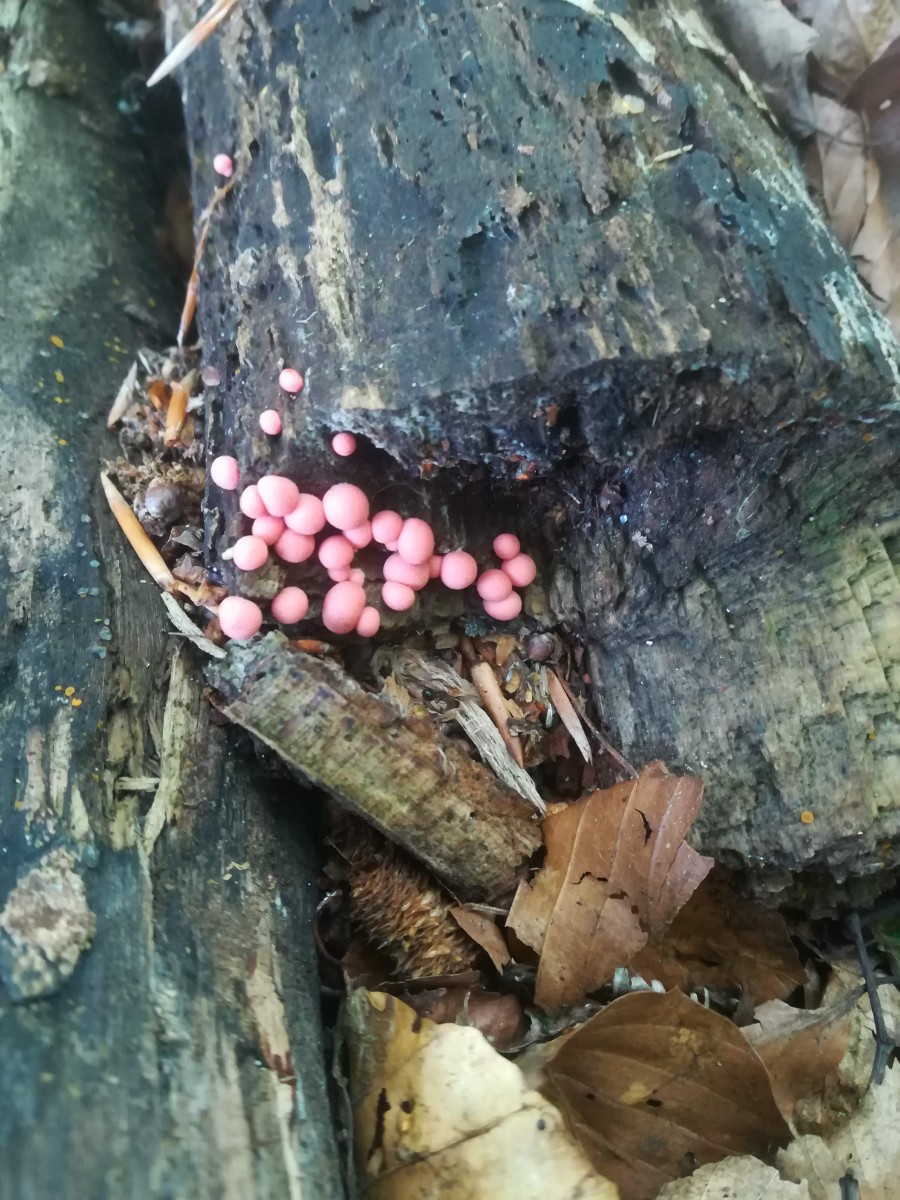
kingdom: Protozoa
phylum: Mycetozoa
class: Myxomycetes
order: Cribrariales
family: Tubiferaceae
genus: Lycogala
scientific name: Lycogala epidendrum
